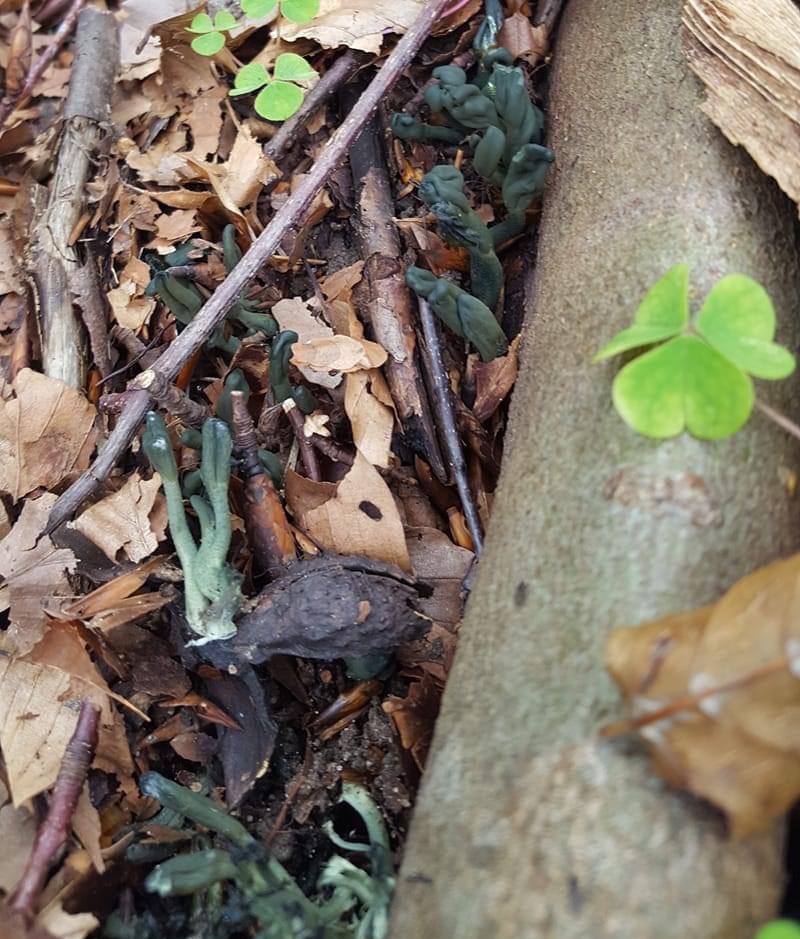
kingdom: Fungi
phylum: Ascomycota
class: Leotiomycetes
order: Leotiales
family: Leotiaceae
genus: Microglossum
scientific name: Microglossum griseoviride
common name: grågrøn farvetunge
